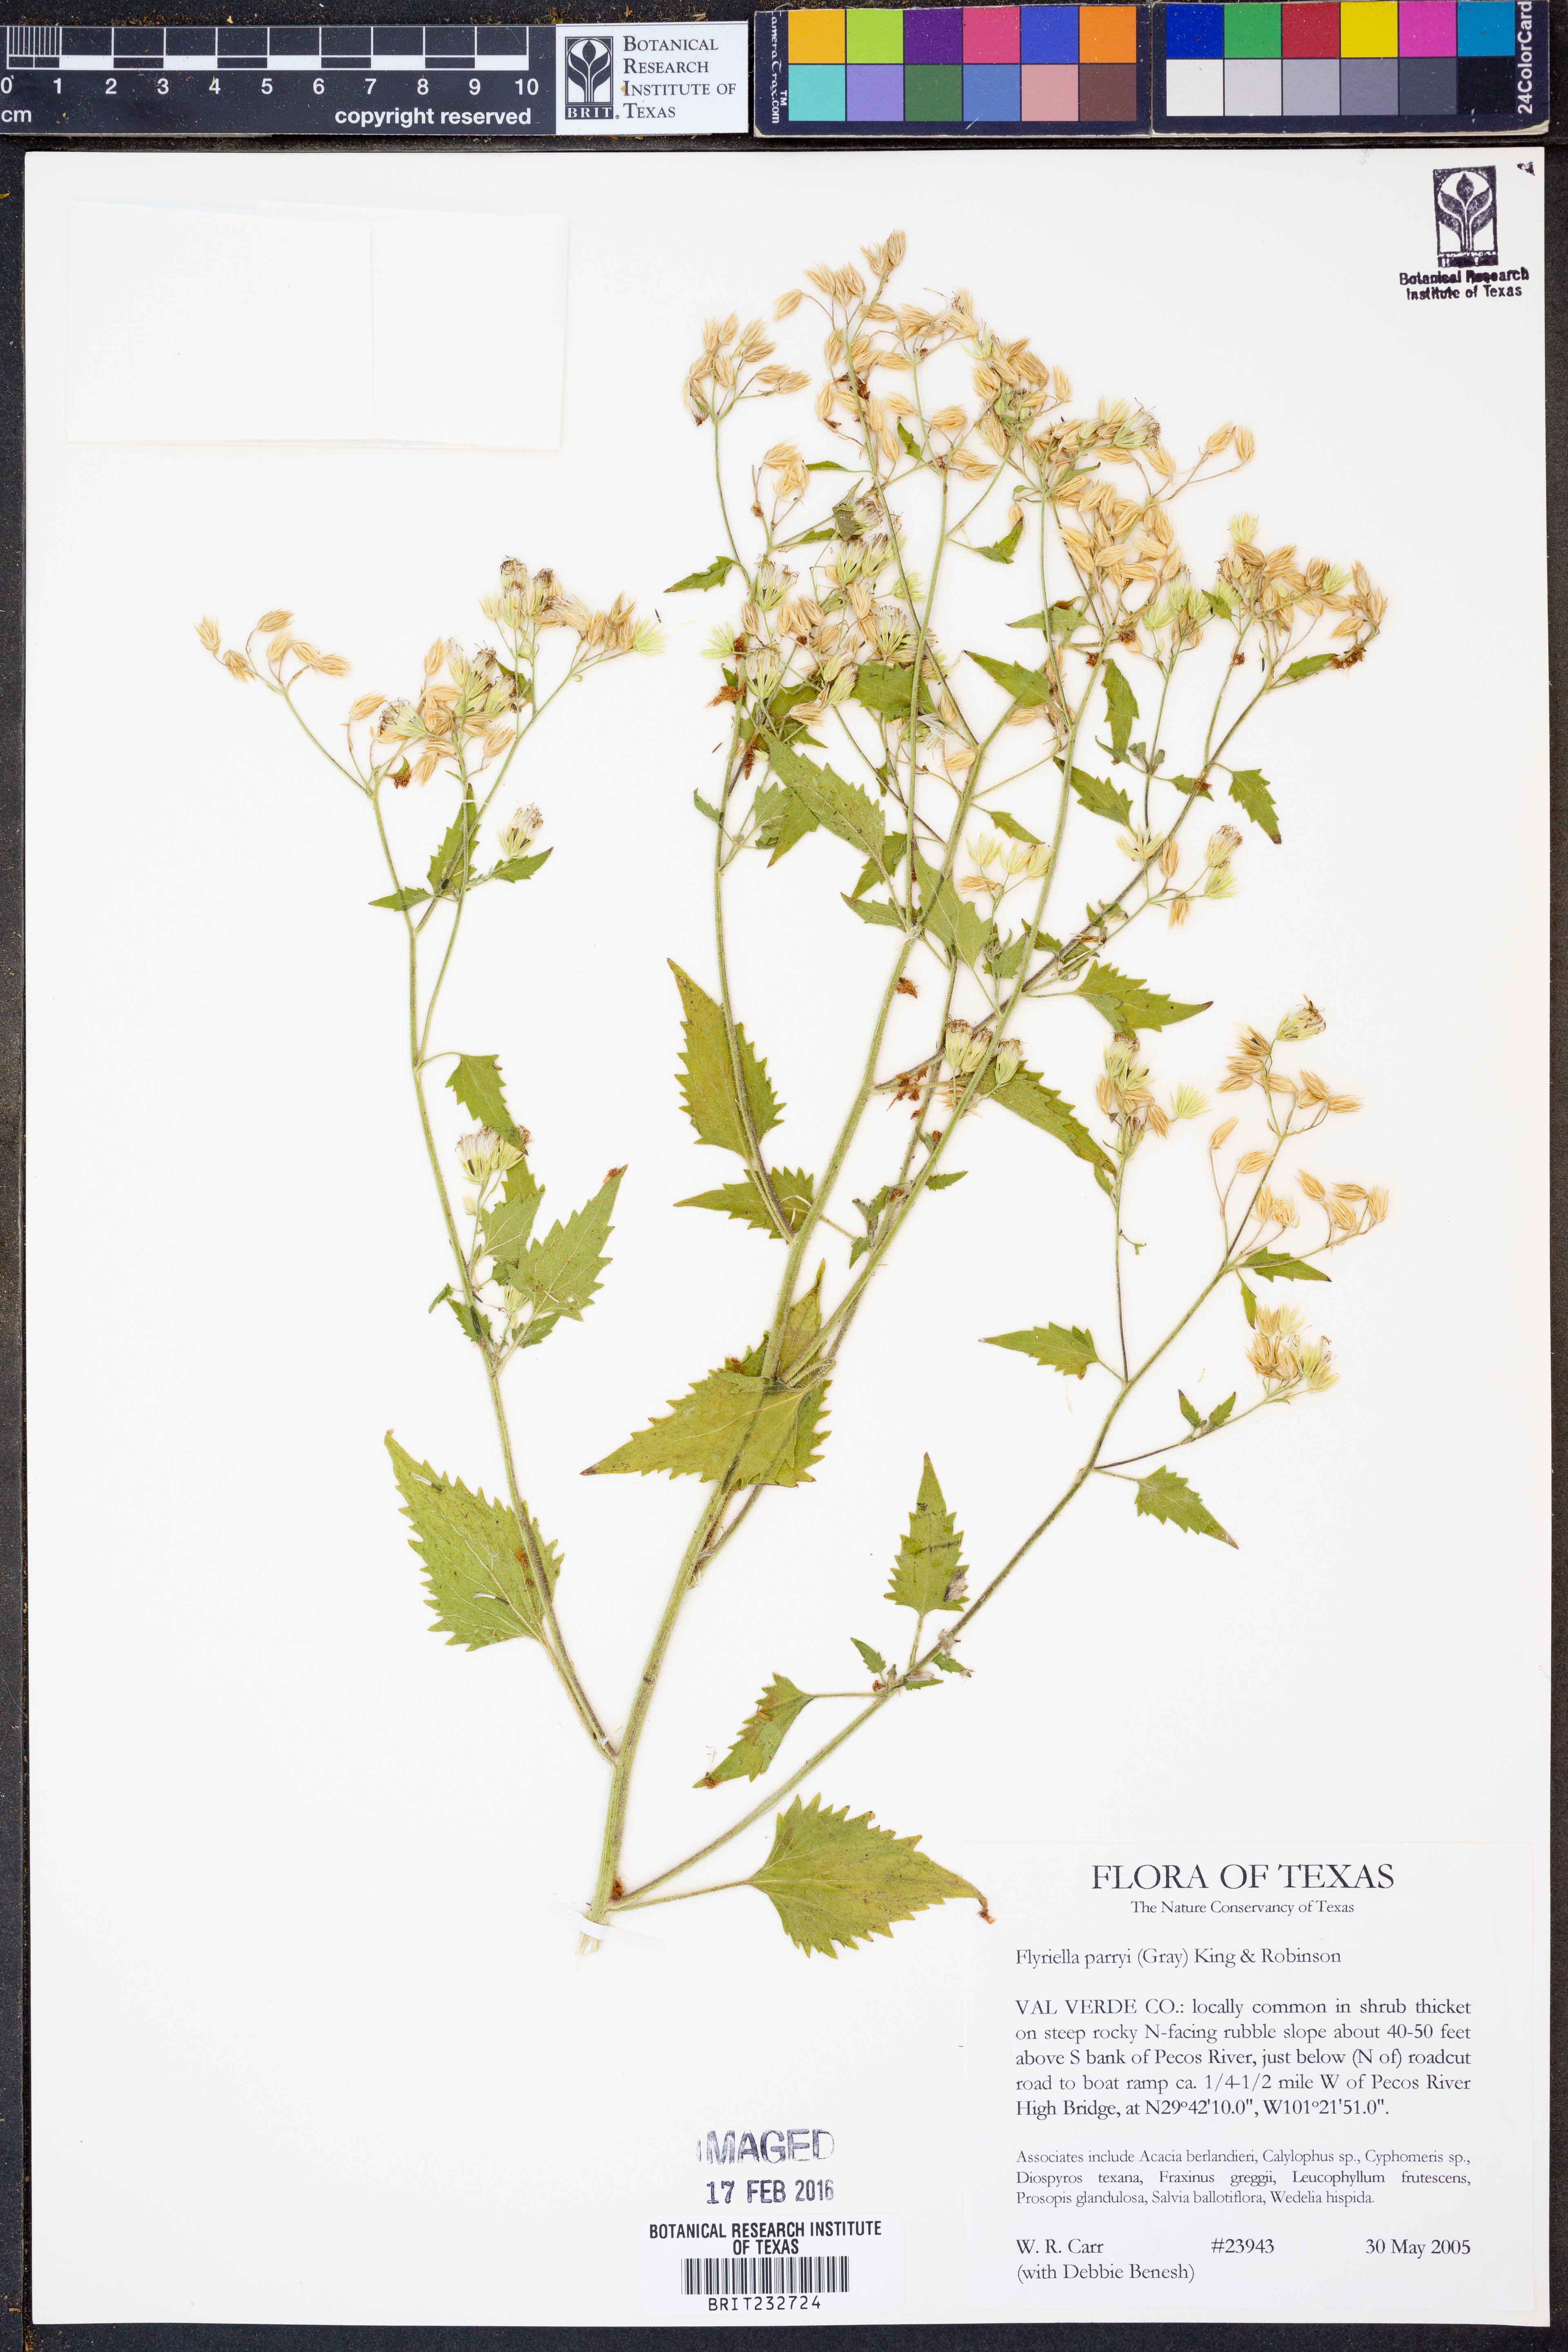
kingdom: Plantae
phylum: Tracheophyta
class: Magnoliopsida
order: Asterales
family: Asteraceae
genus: Flyriella
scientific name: Flyriella parryi
